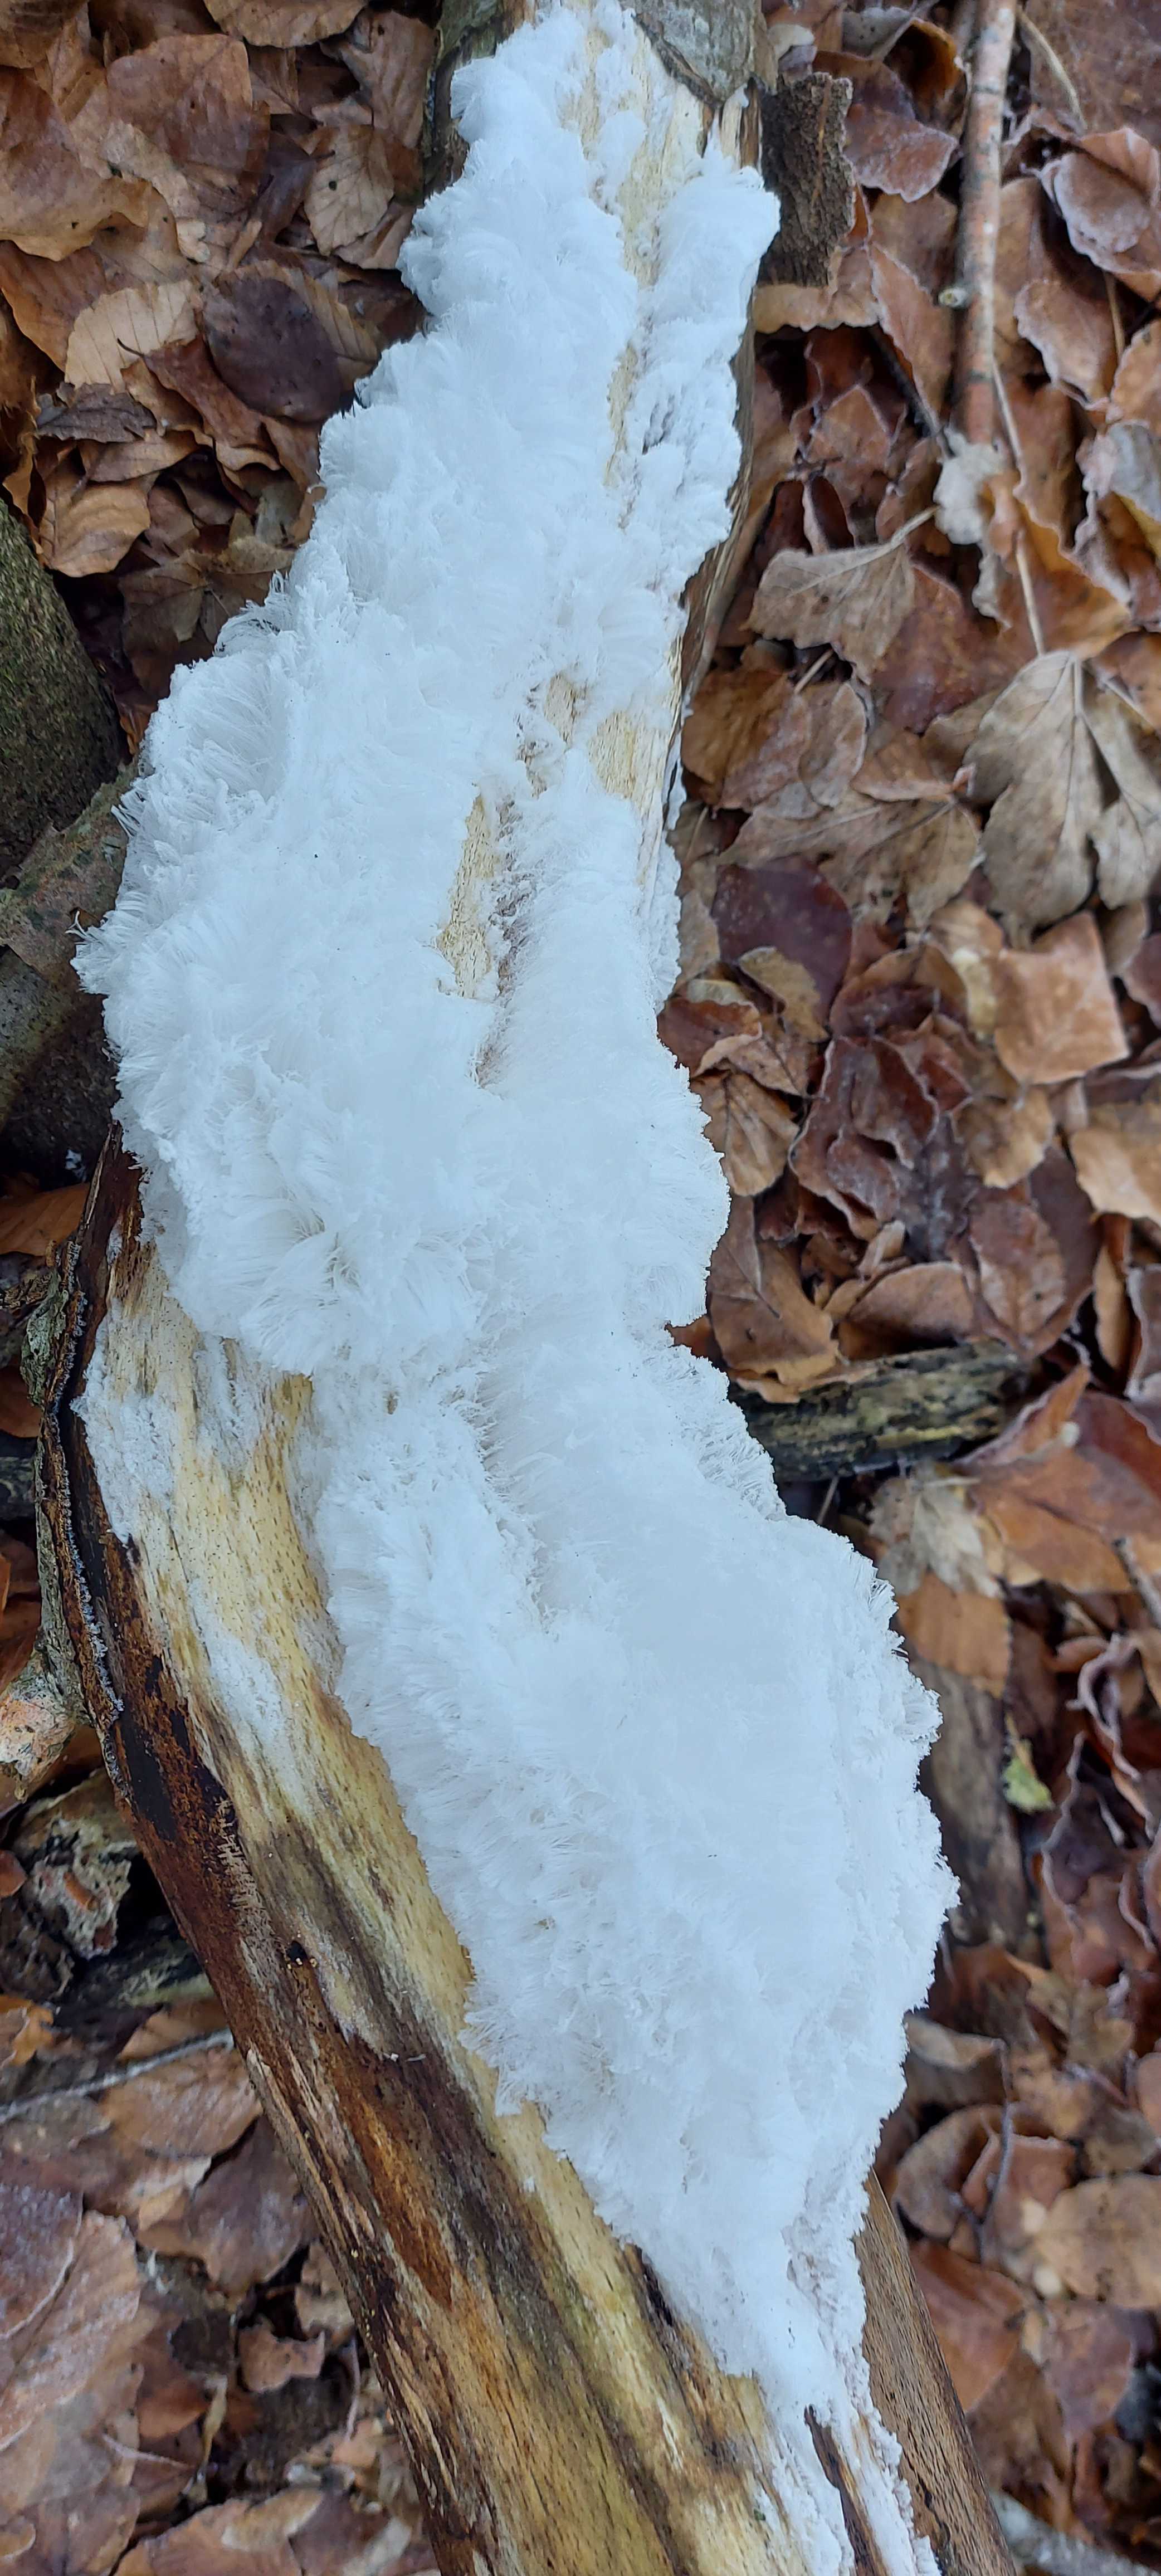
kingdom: Fungi
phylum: Basidiomycota
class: Tremellomycetes
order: Tremellales
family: Exidiaceae
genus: Exidiopsis
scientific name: Exidiopsis effusa
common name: smuk bævrehinde
